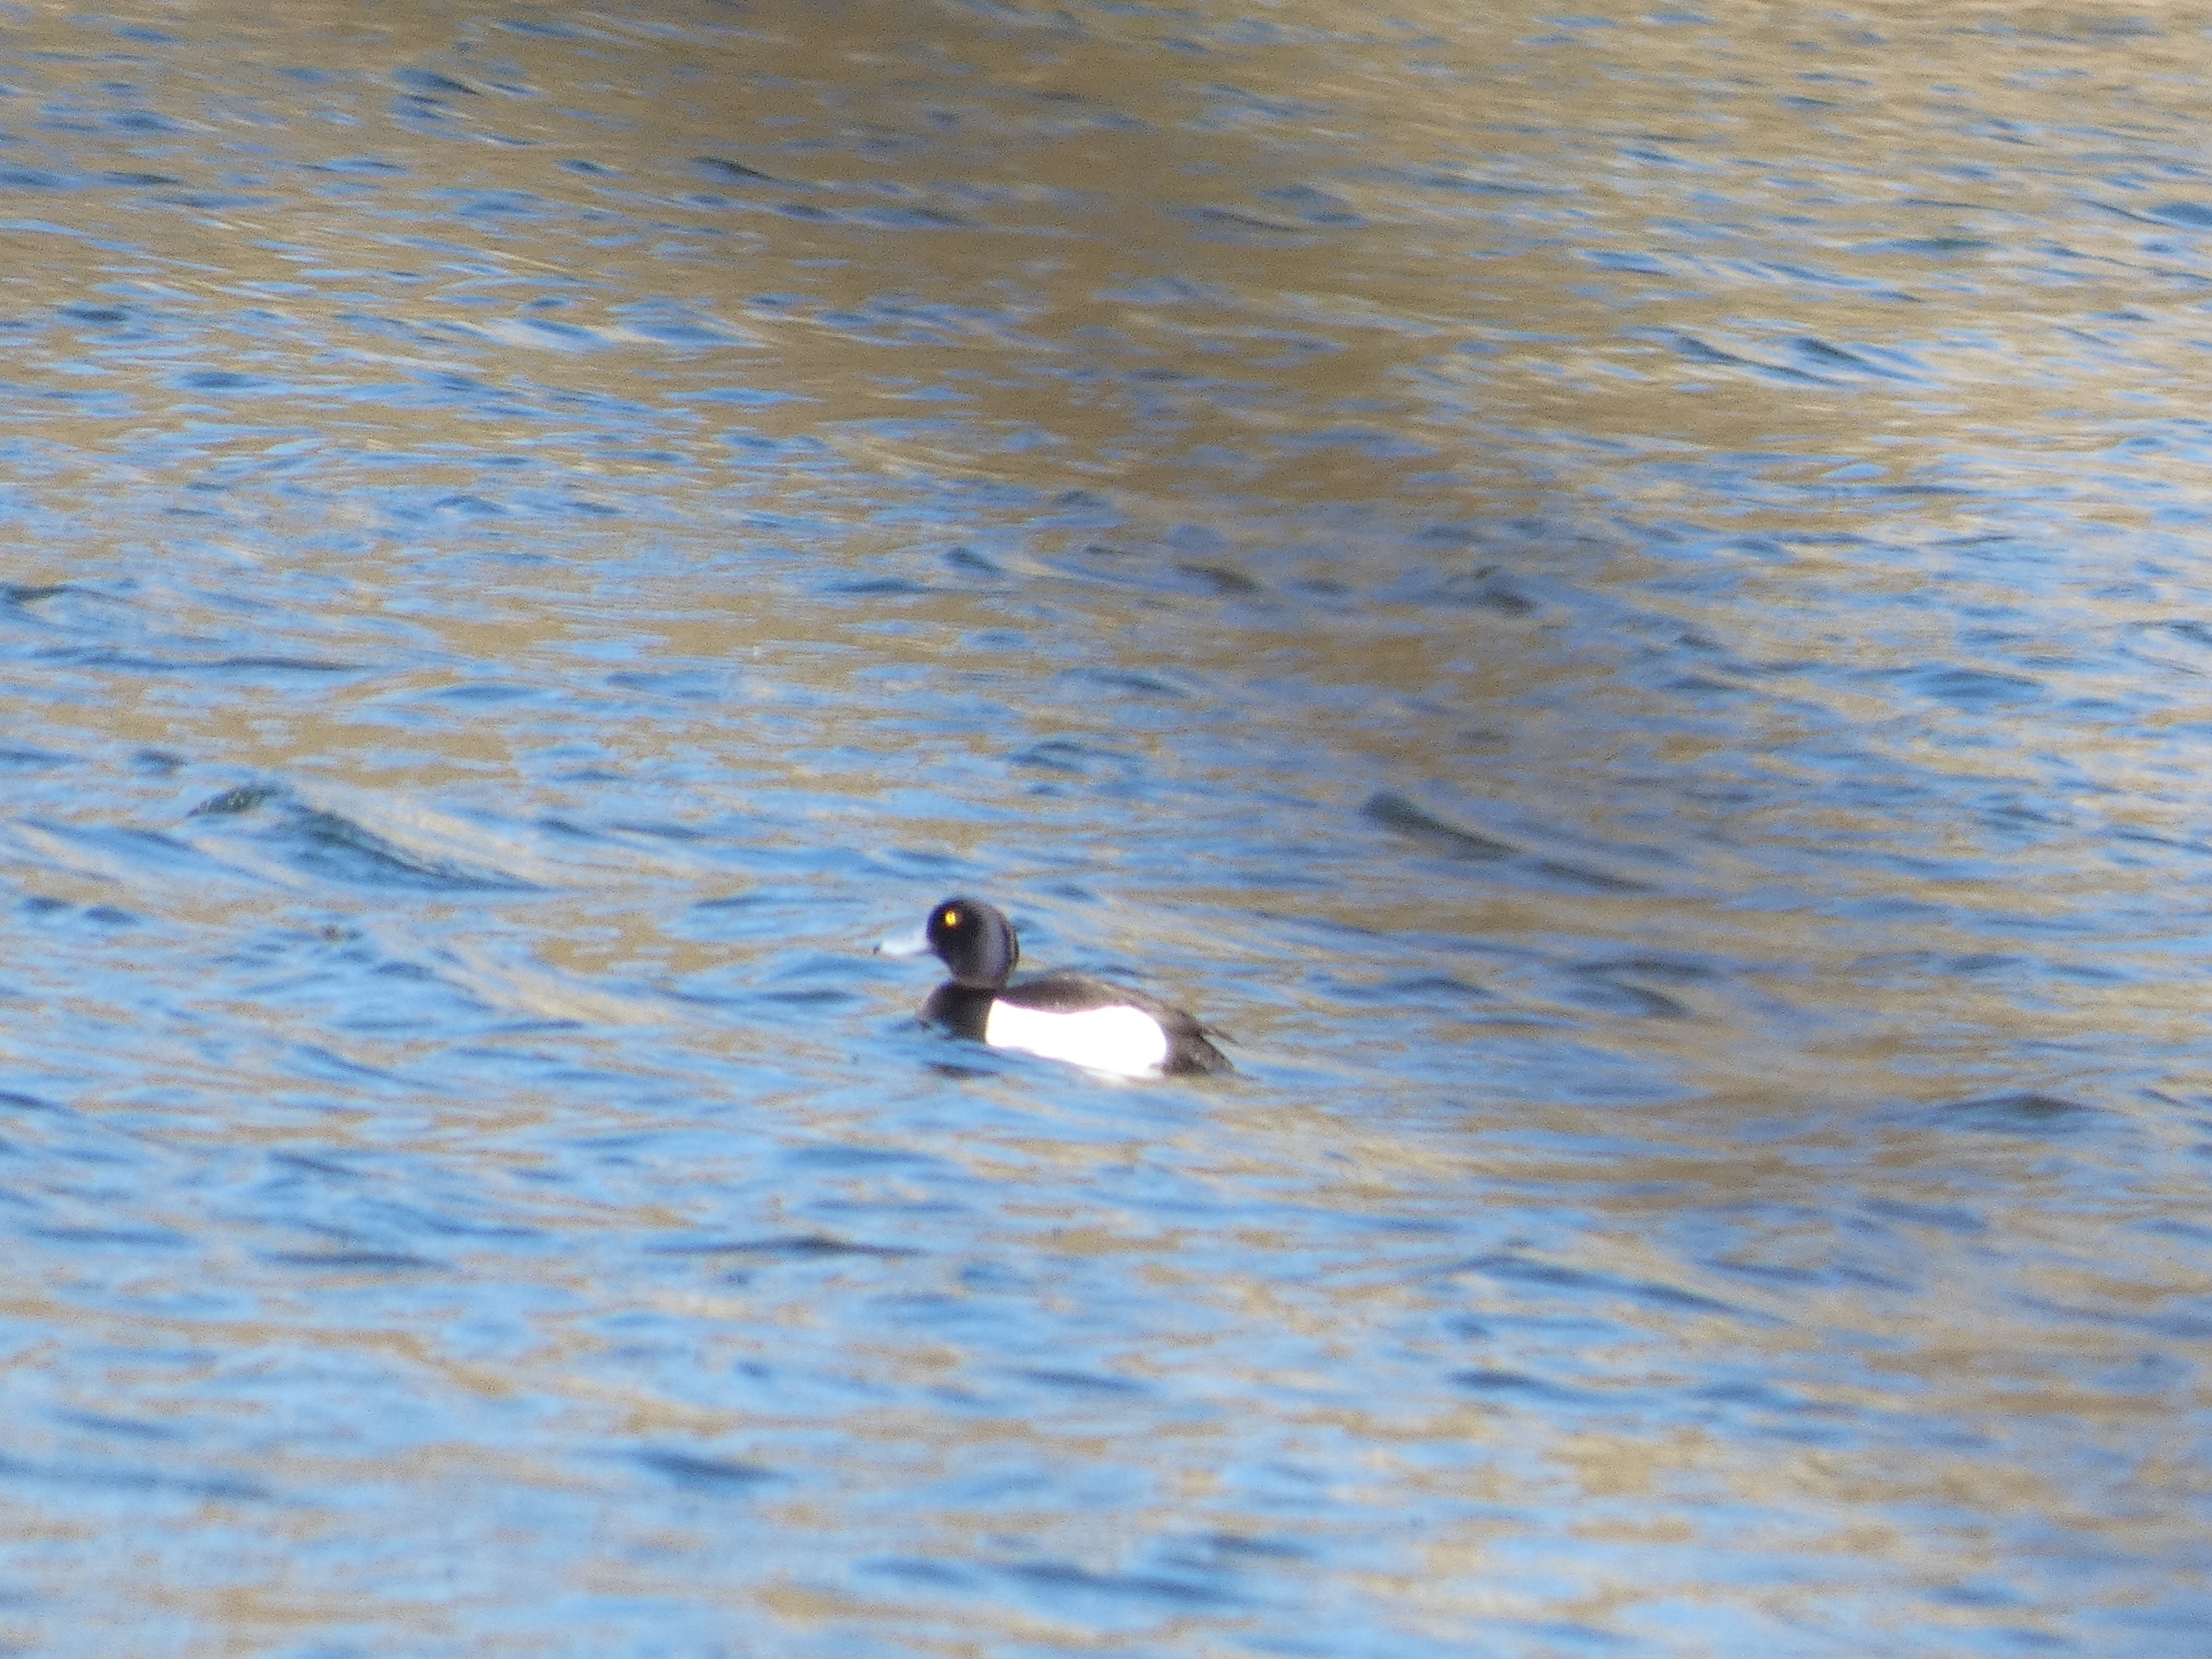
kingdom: Animalia
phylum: Chordata
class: Aves
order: Anseriformes
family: Anatidae
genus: Aythya
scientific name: Aythya fuligula
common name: Troldand
